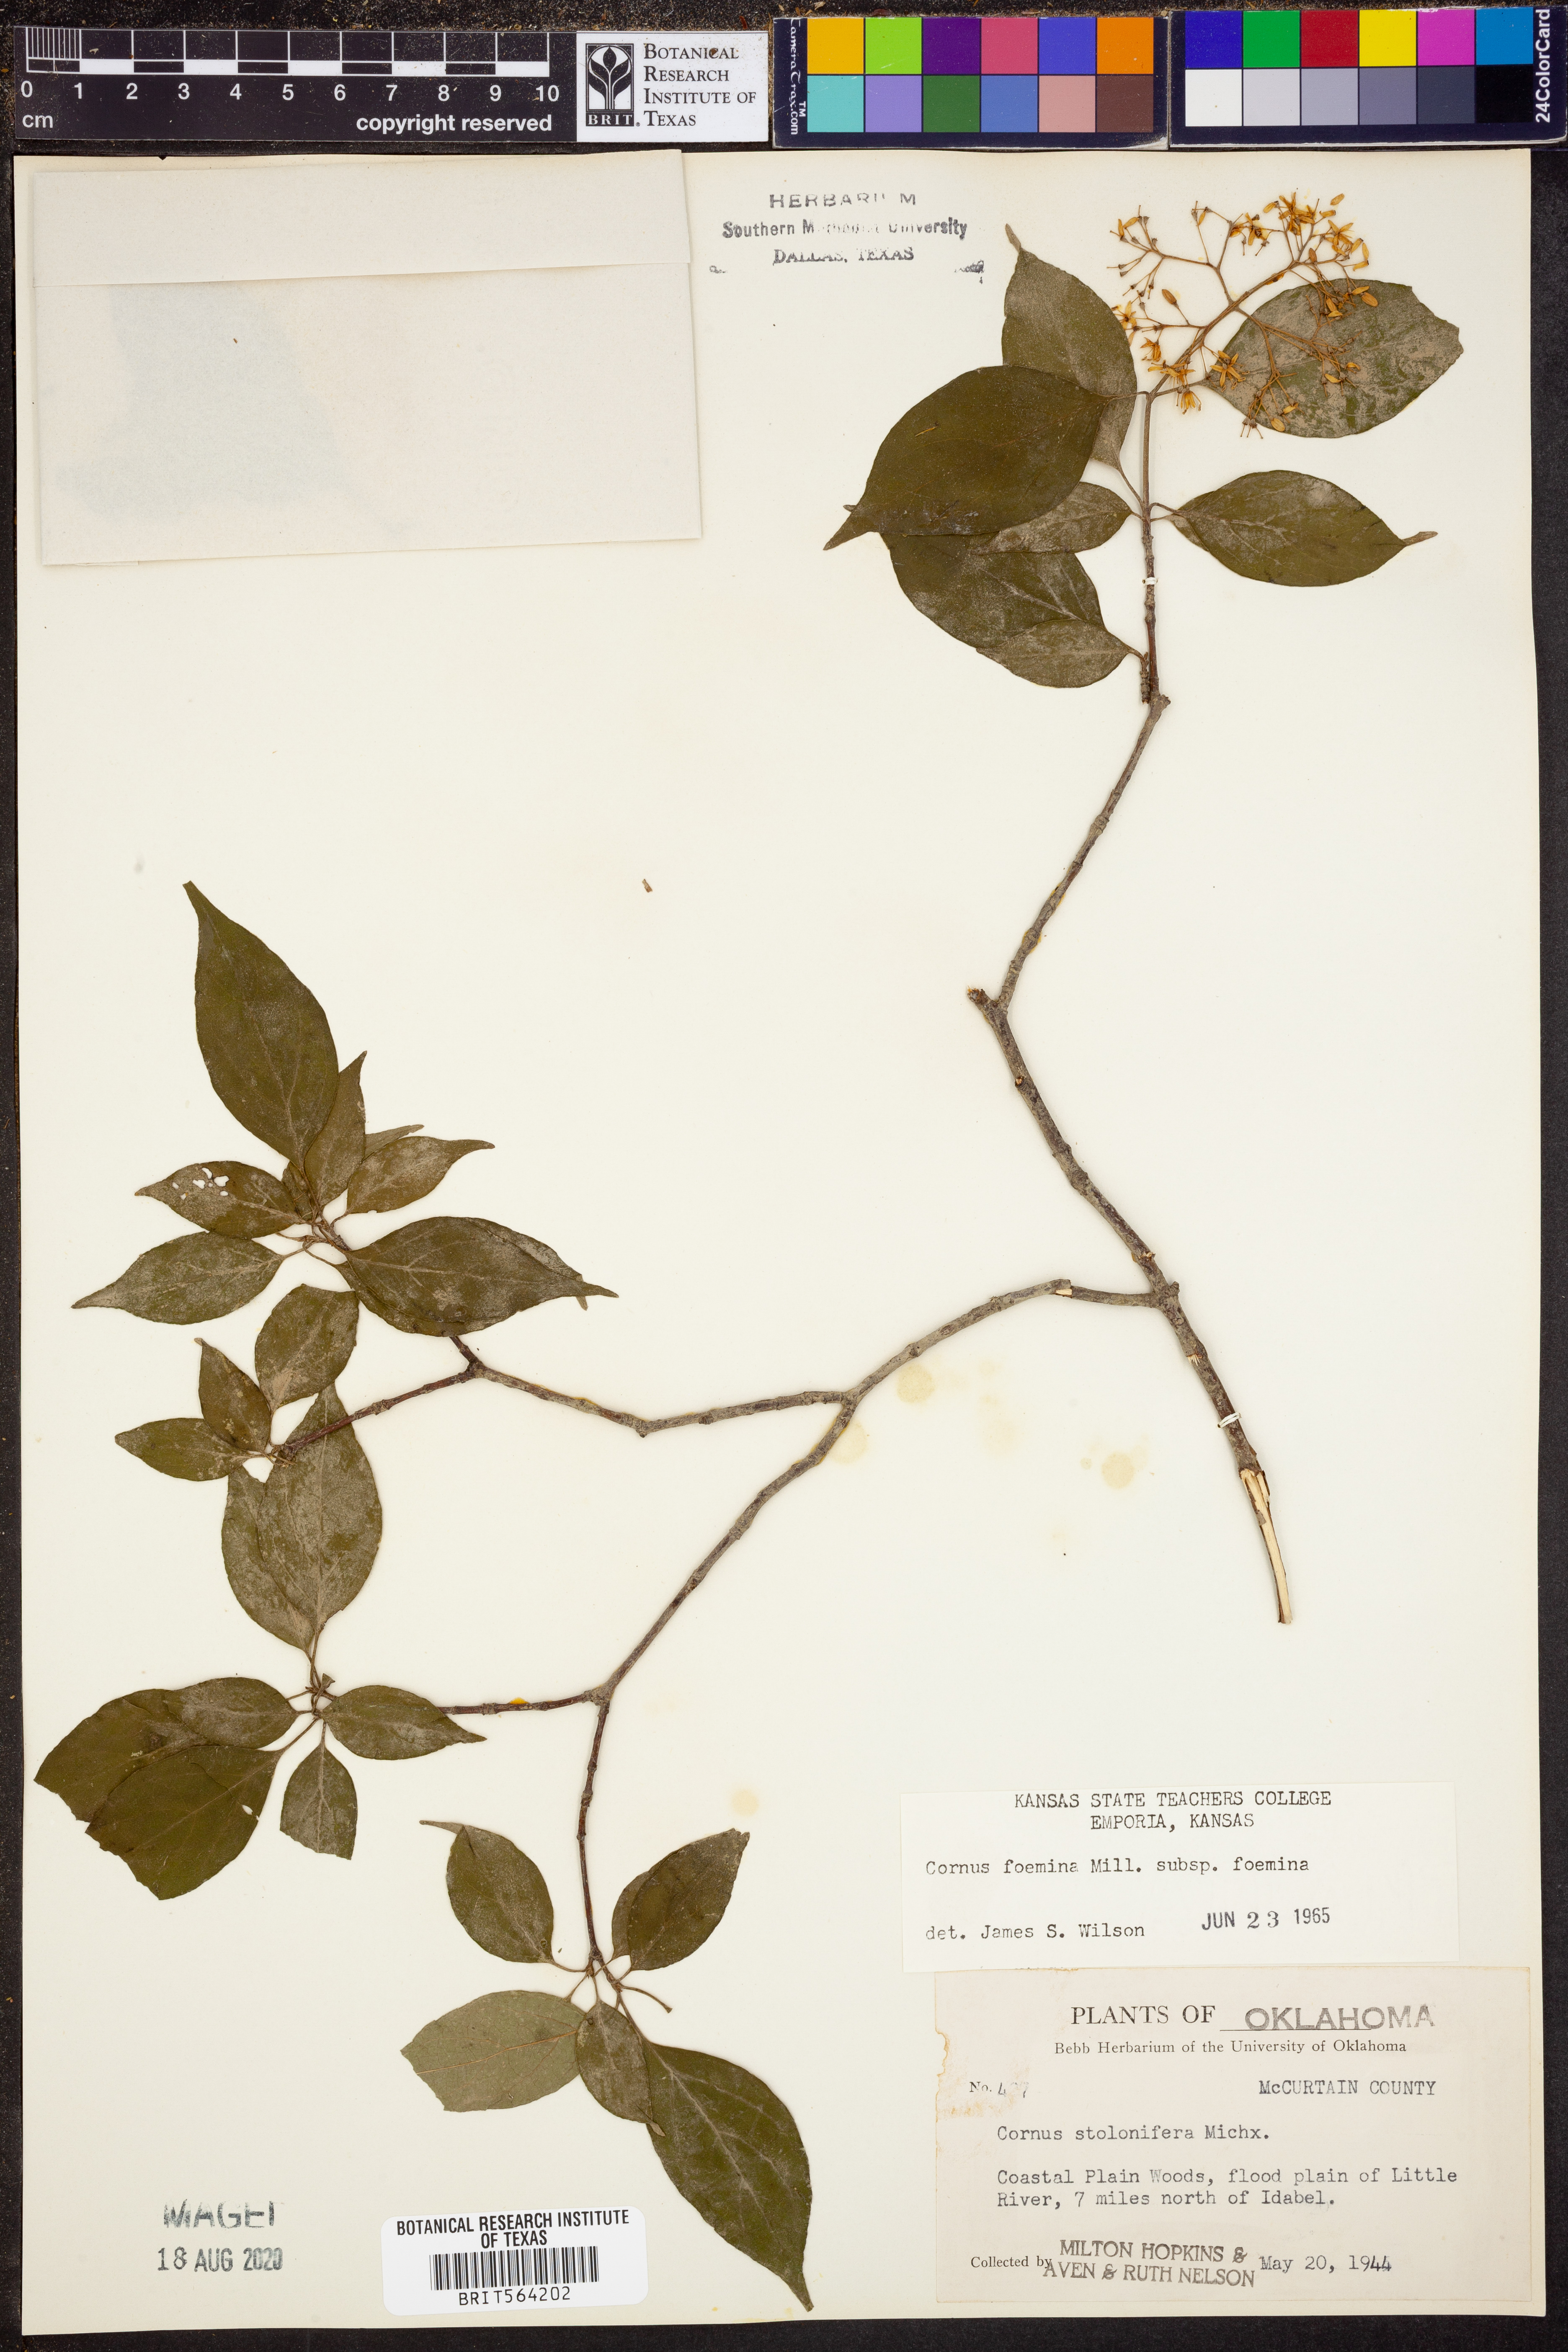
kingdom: Plantae
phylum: Tracheophyta
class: Magnoliopsida
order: Cornales
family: Cornaceae
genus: Cornus
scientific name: Cornus foemina
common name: Swamp dogwood
